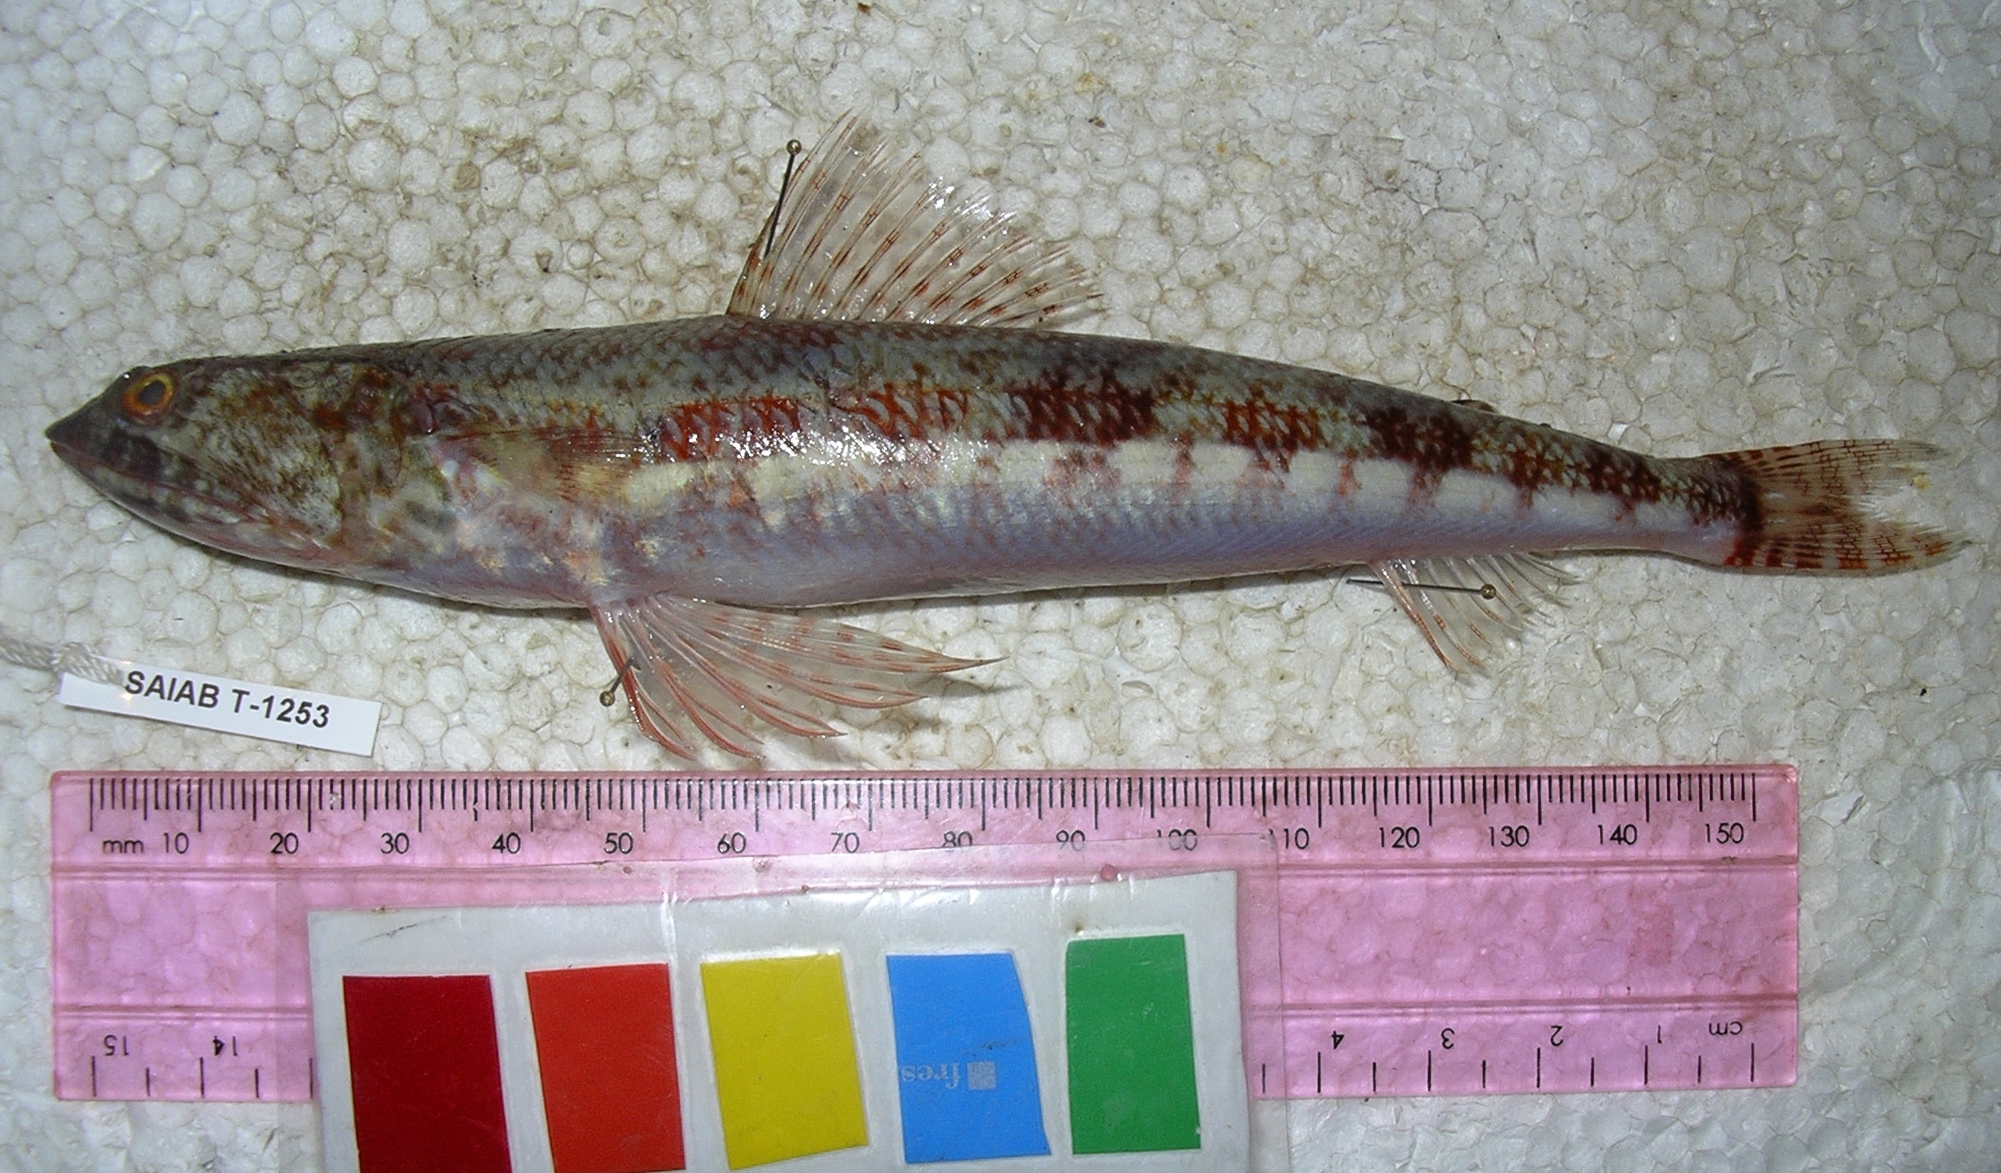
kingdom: Animalia
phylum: Chordata
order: Aulopiformes
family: Synodontidae
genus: Synodus
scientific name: Synodus dermatogenys
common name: Banded lizardfish
